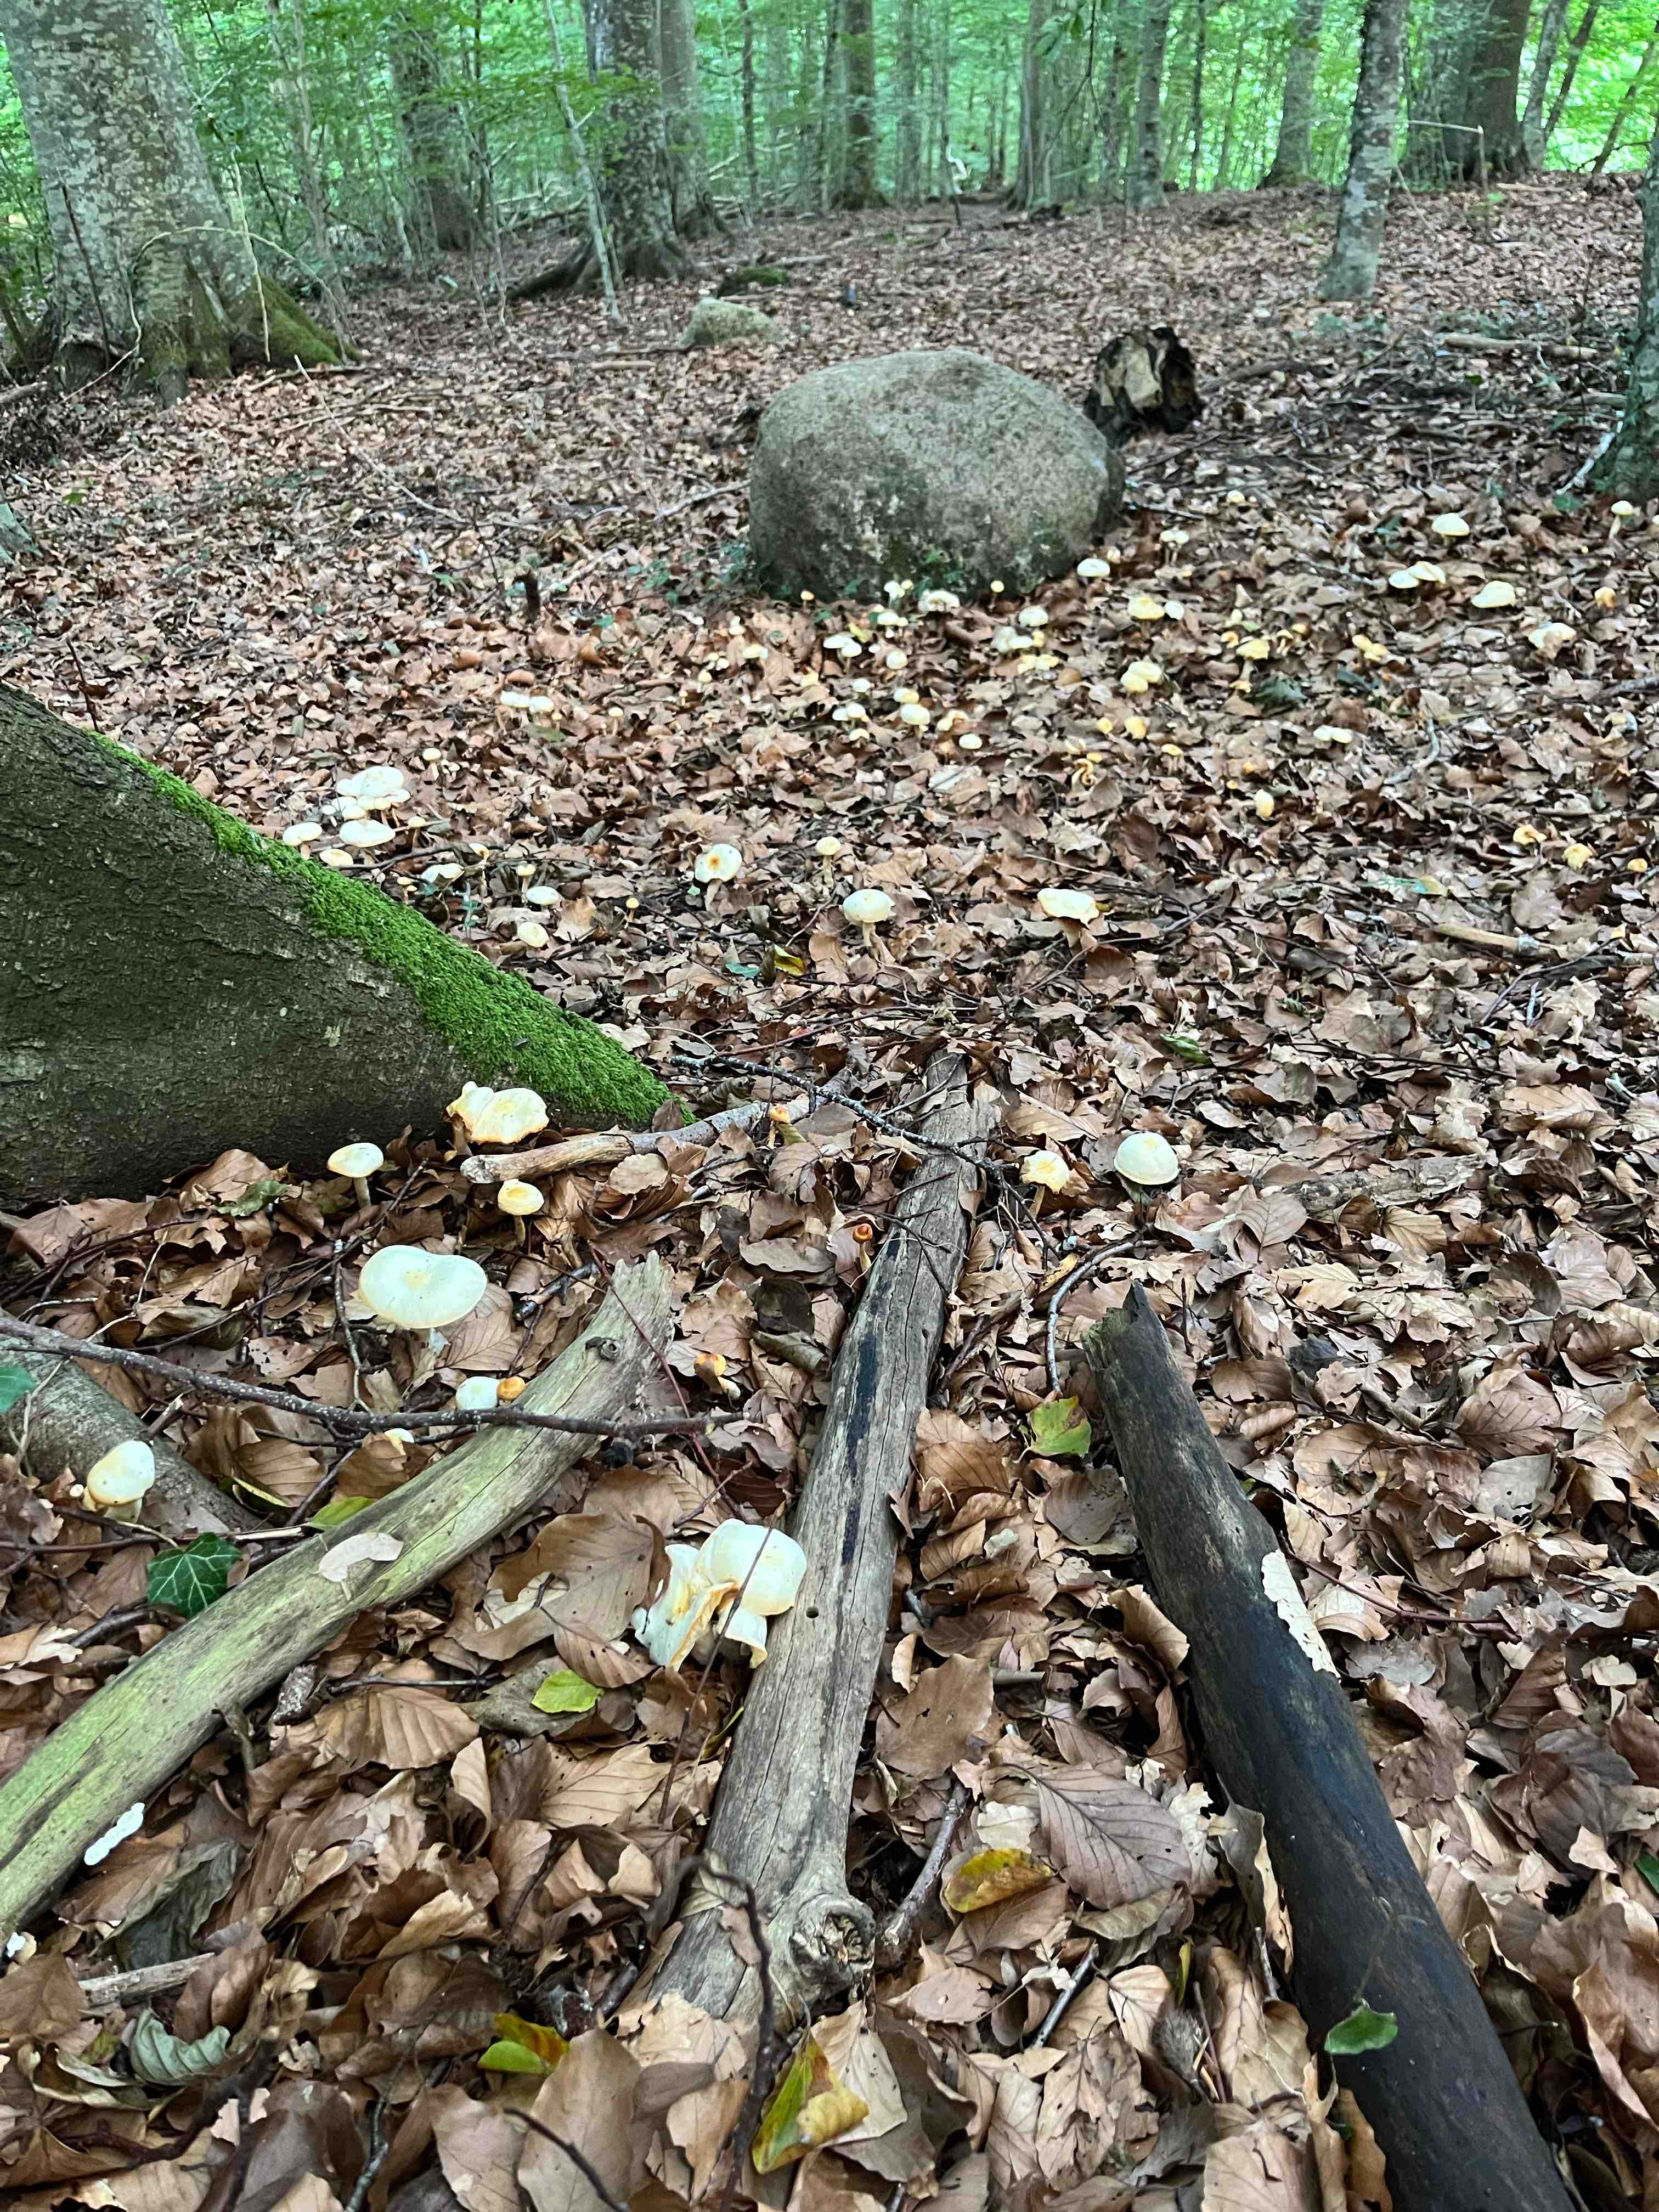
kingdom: Fungi
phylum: Basidiomycota
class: Agaricomycetes
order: Agaricales
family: Hygrophoraceae
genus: Hygrophorus
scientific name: Hygrophorus
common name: sneglehat
